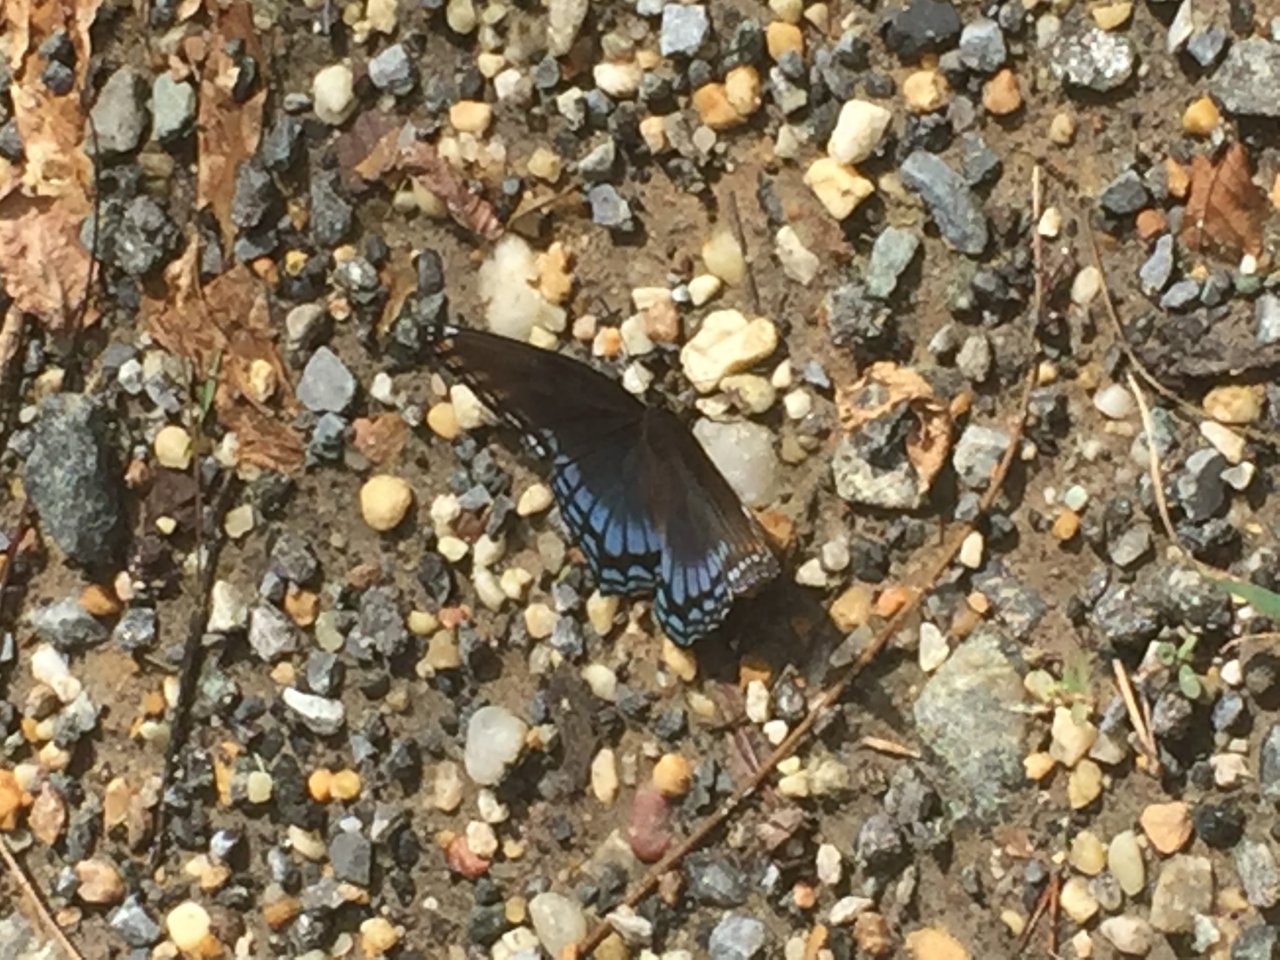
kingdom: Animalia
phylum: Arthropoda
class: Insecta
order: Lepidoptera
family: Nymphalidae
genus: Limenitis
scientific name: Limenitis astyanax
